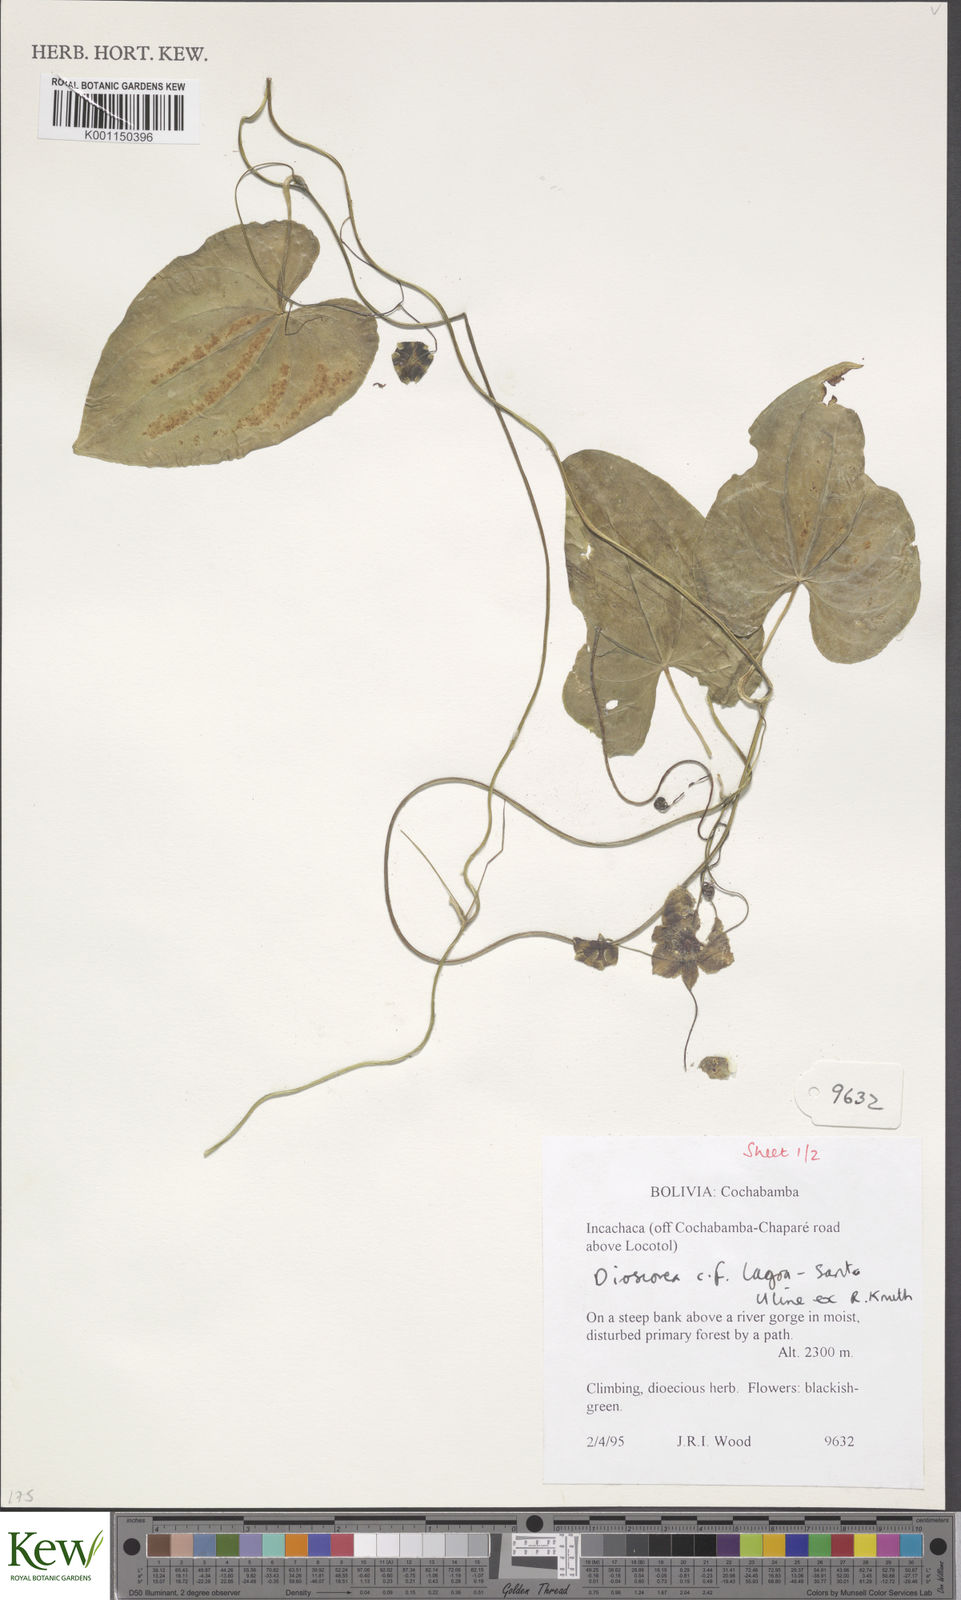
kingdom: Plantae
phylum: Tracheophyta
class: Liliopsida
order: Dioscoreales
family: Dioscoreaceae
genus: Dioscorea
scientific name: Dioscorea spectabilis
